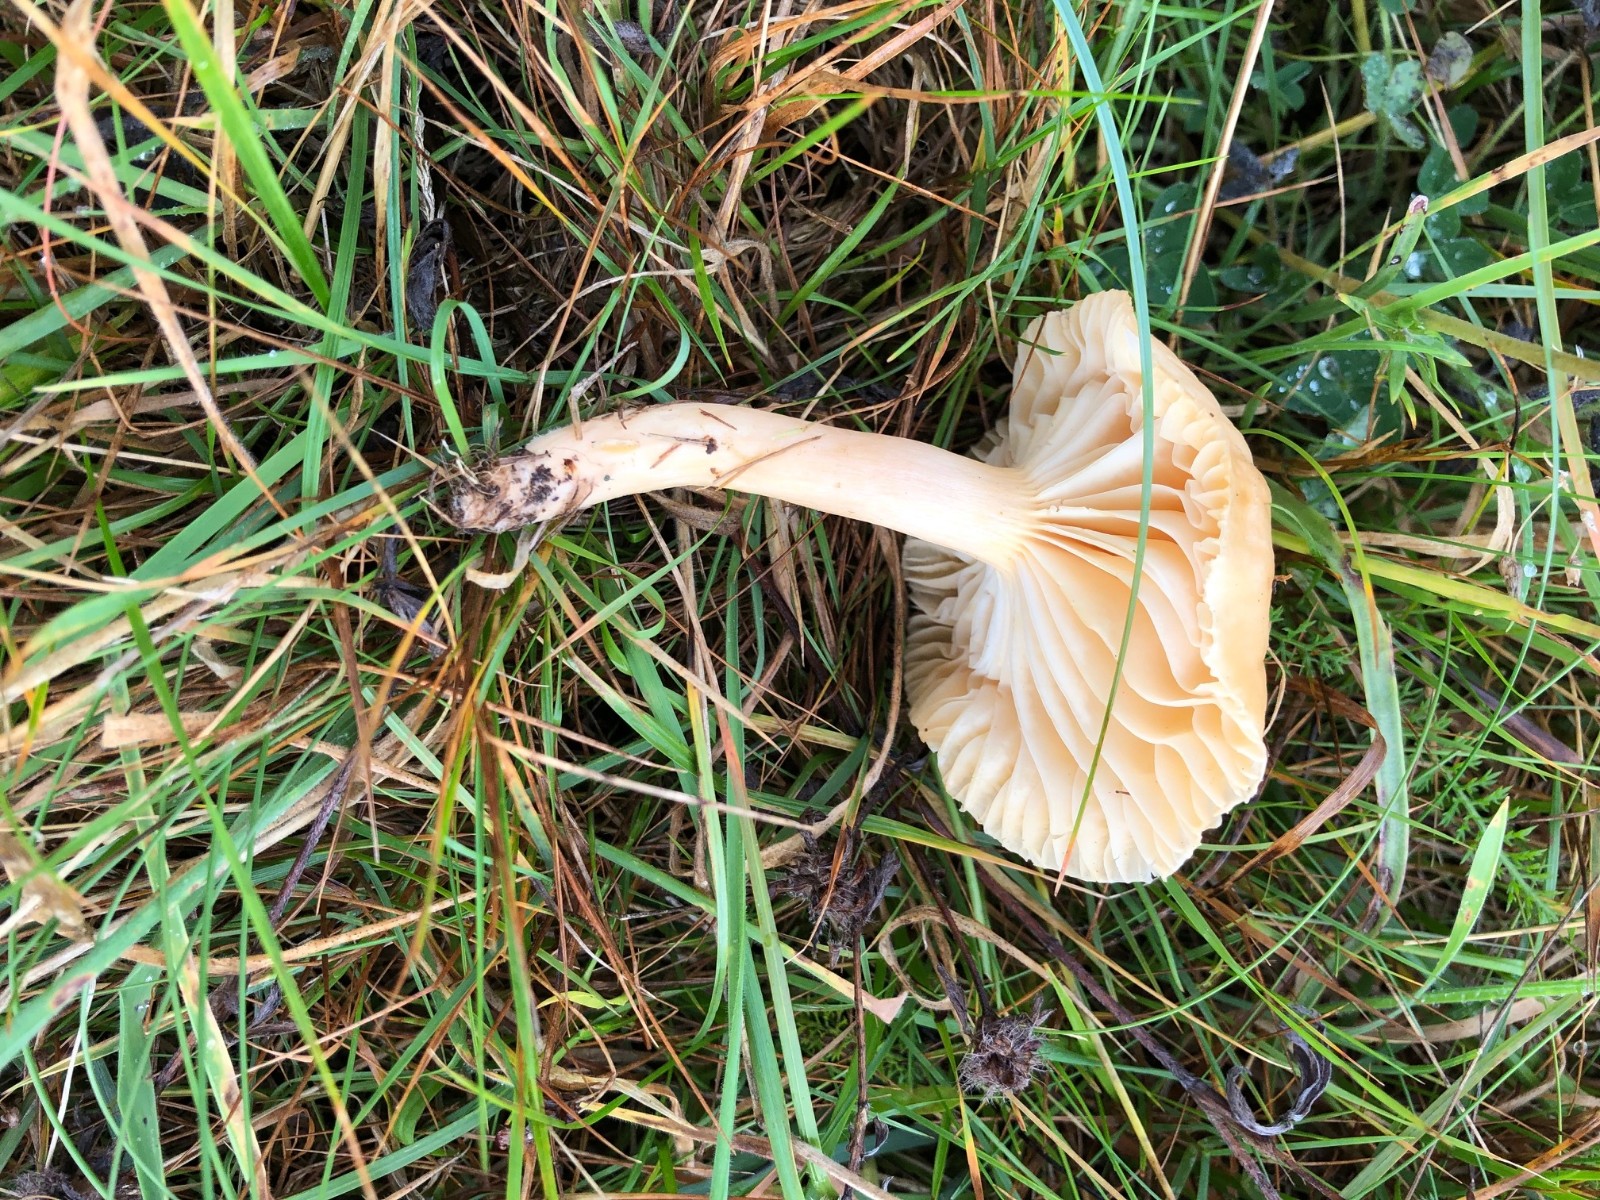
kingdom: Fungi
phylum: Basidiomycota
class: Agaricomycetes
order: Agaricales
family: Hygrophoraceae
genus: Cuphophyllus
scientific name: Cuphophyllus pratensis
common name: eng-vokshat
